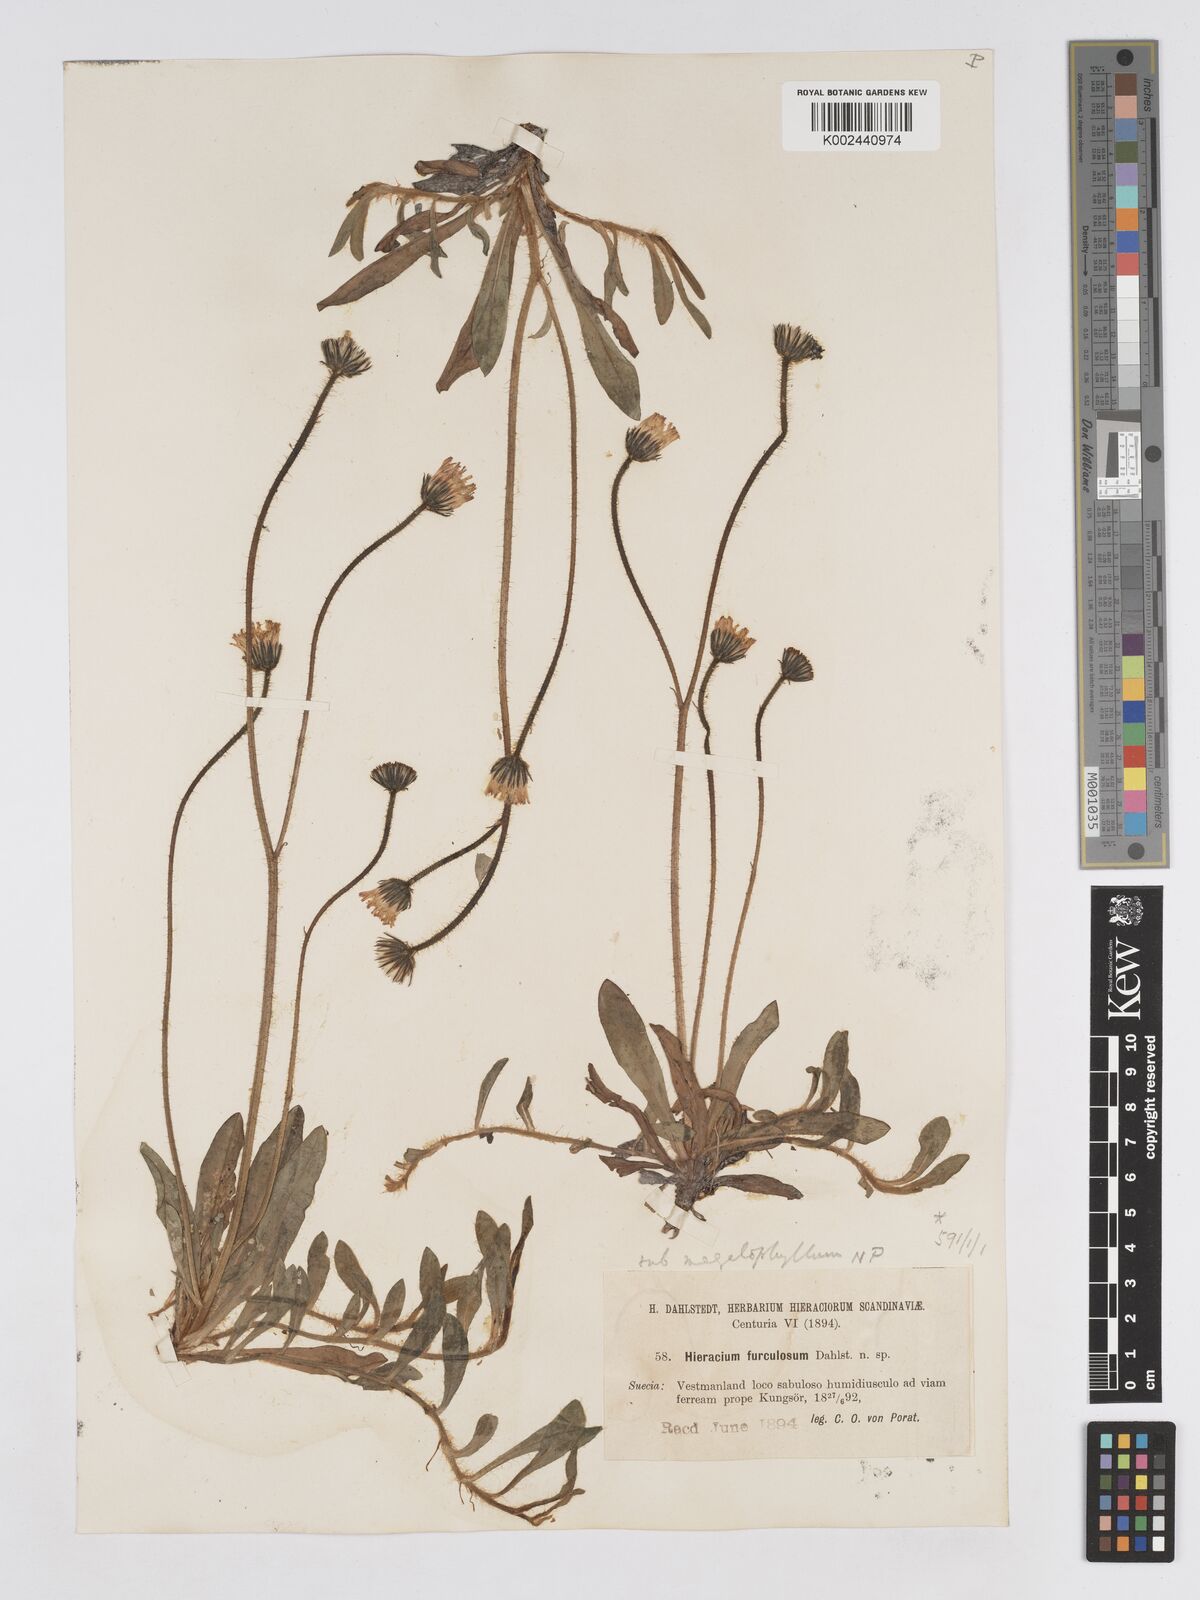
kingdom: Plantae
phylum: Tracheophyta
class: Magnoliopsida
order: Asterales
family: Asteraceae
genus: Pilosella
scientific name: Pilosella schultesii
